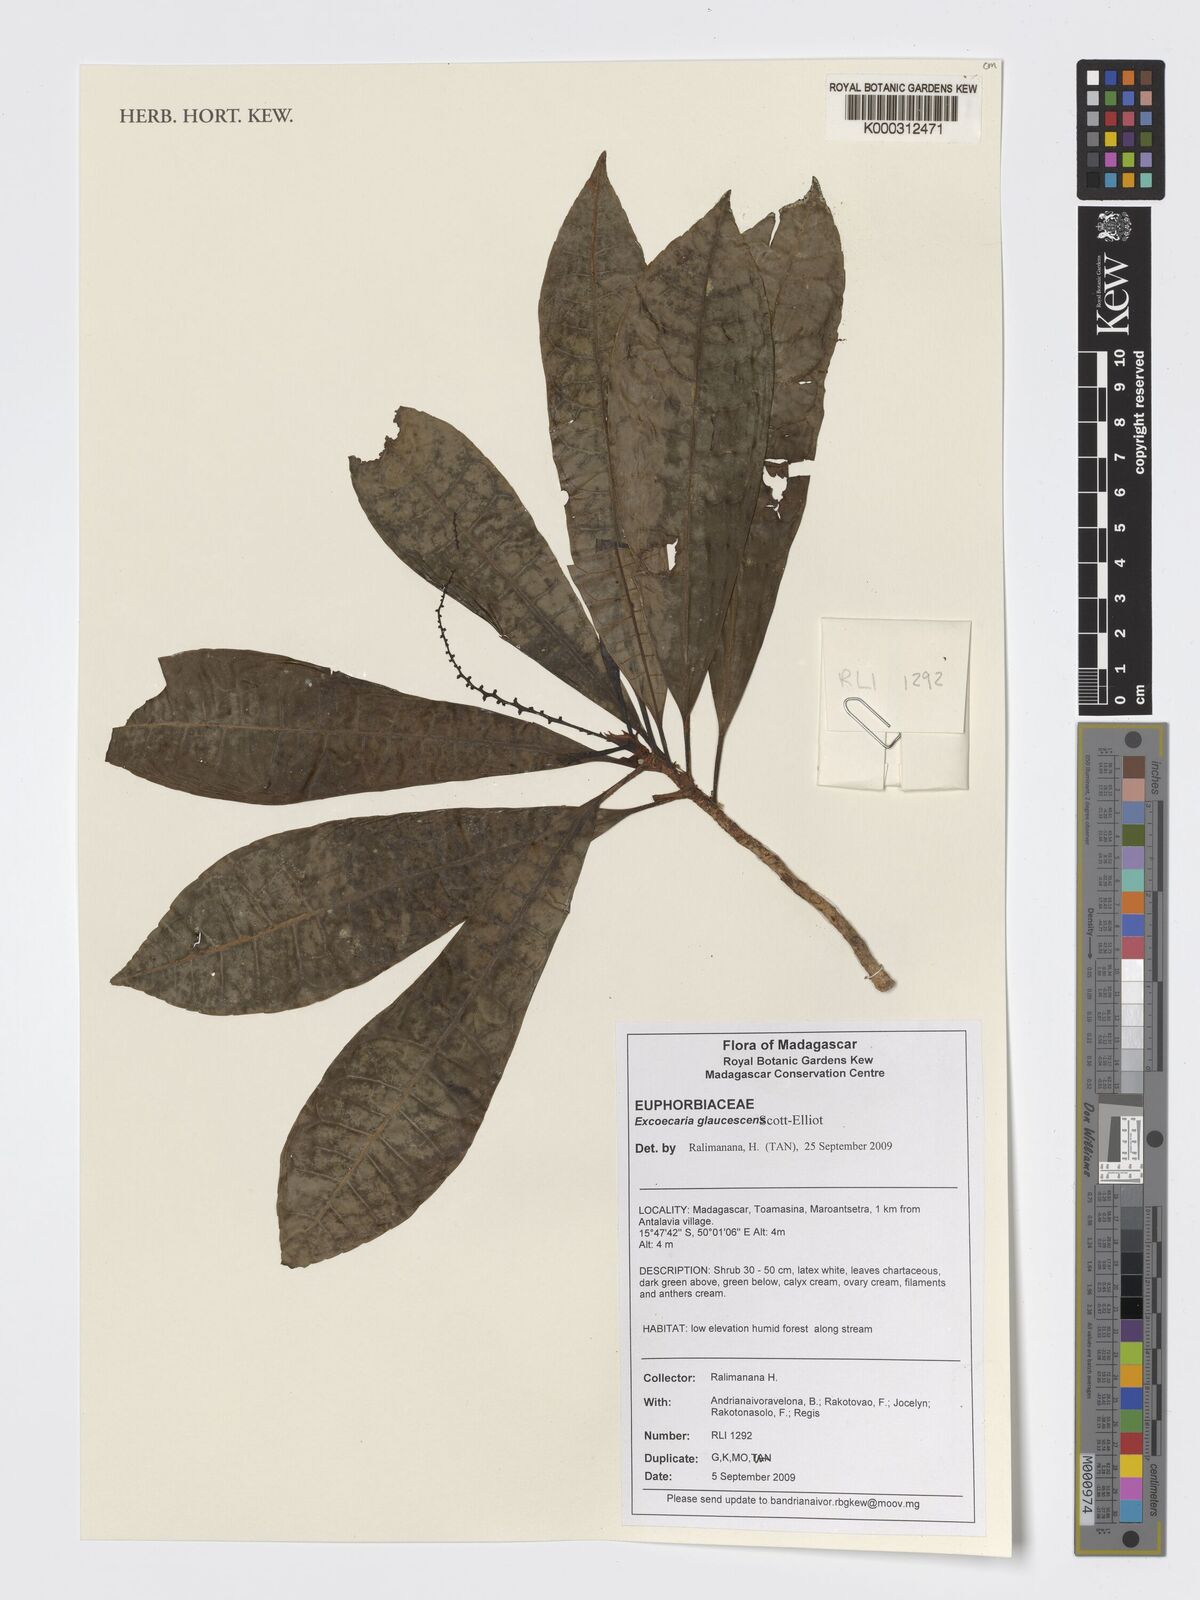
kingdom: Plantae
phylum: Tracheophyta
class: Magnoliopsida
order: Malpighiales
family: Euphorbiaceae
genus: Excoecaria
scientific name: Excoecaria glaucescens
